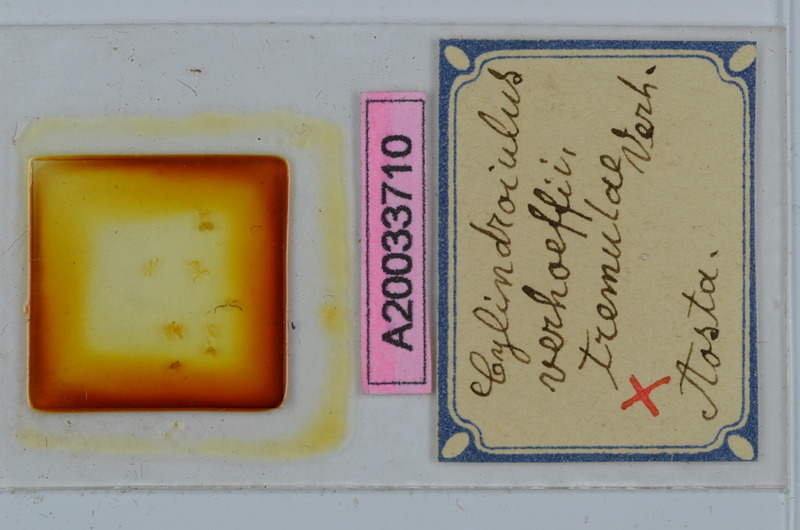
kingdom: Animalia
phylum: Arthropoda
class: Diplopoda
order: Julida
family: Julidae
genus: Cylindroiulus
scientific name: Cylindroiulus verhoeffi
